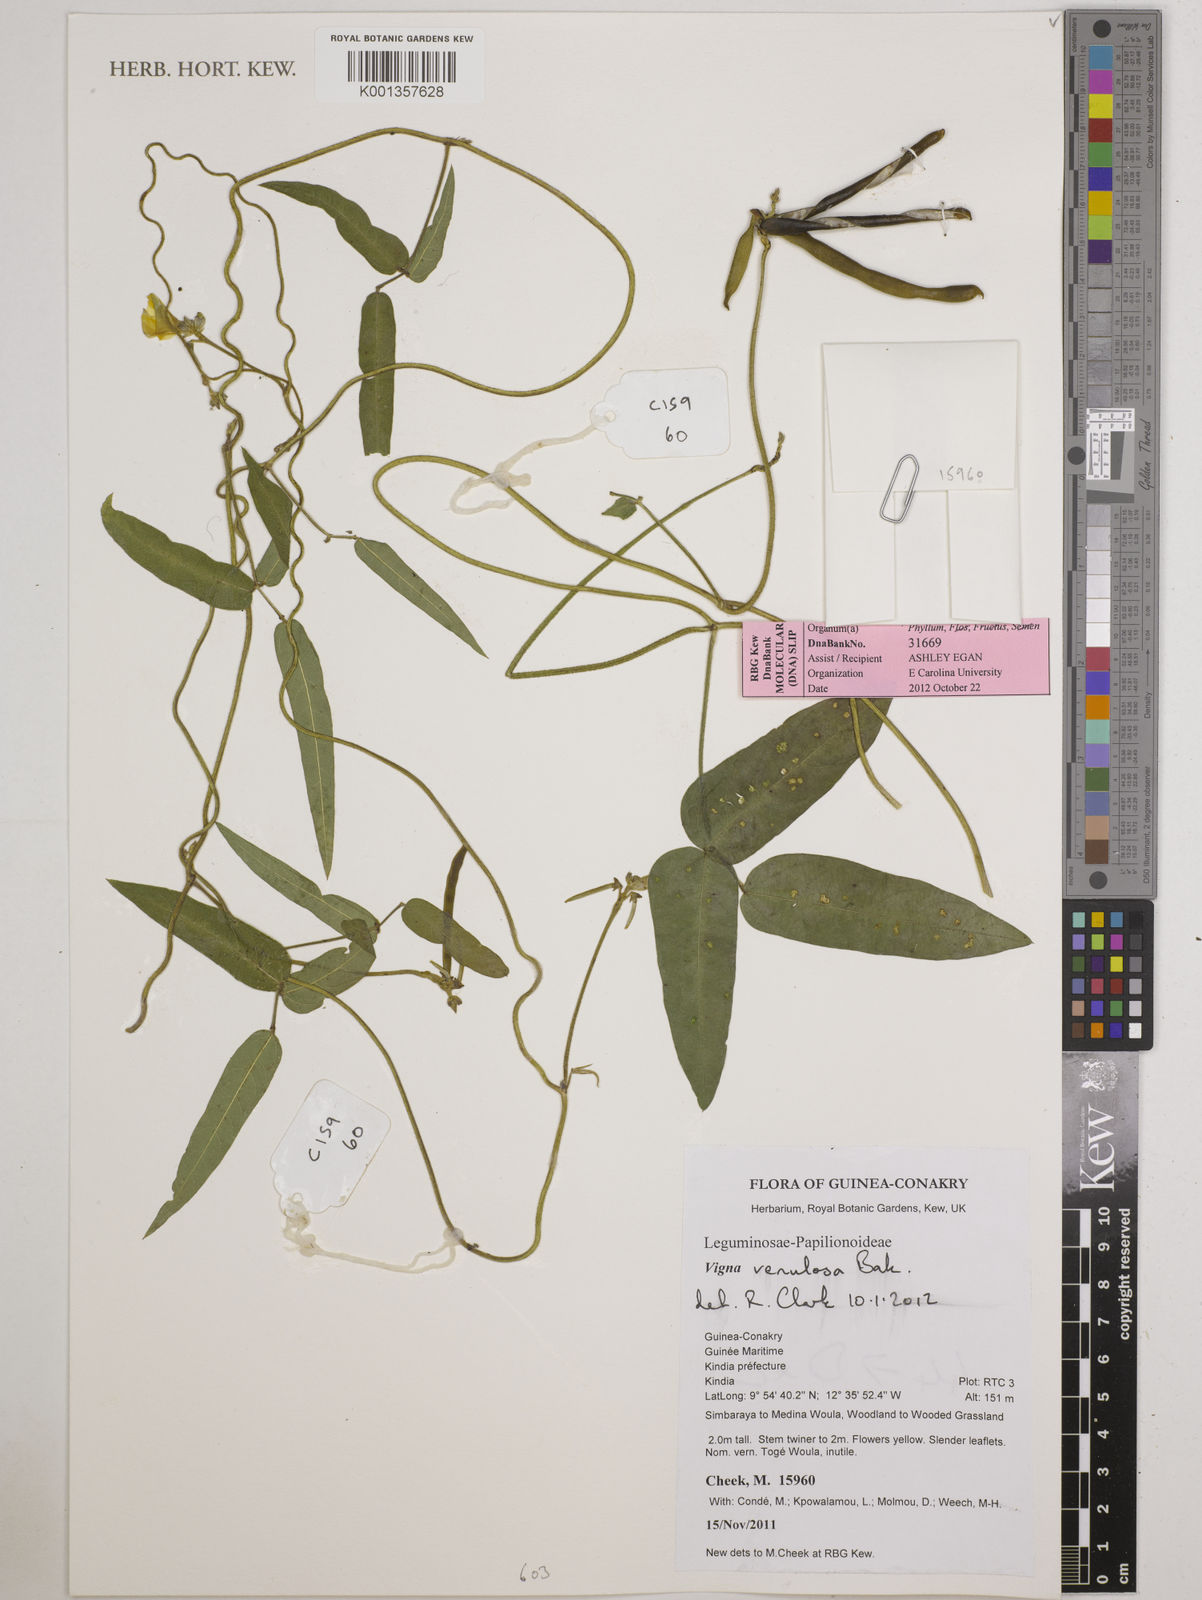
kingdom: Plantae
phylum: Tracheophyta
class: Magnoliopsida
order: Fabales
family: Fabaceae
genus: Vigna
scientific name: Vigna venulosa
